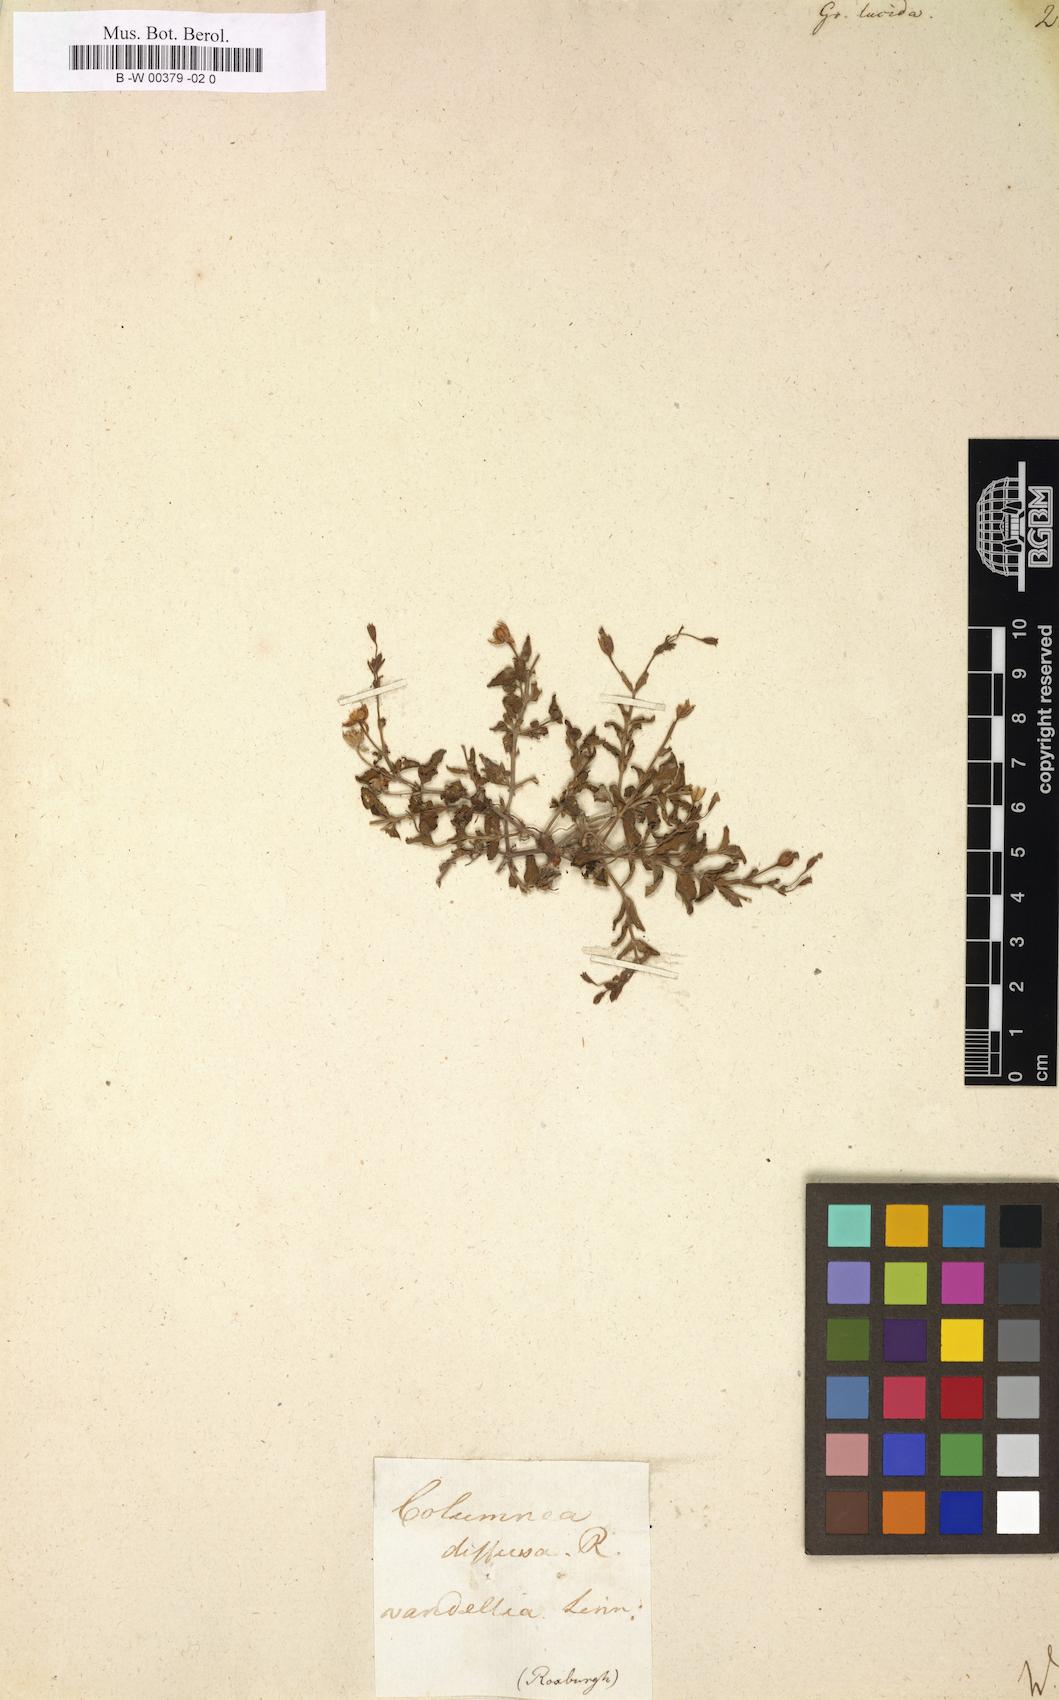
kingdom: Plantae
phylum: Tracheophyta
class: Magnoliopsida
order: Lamiales
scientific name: Lamiales
